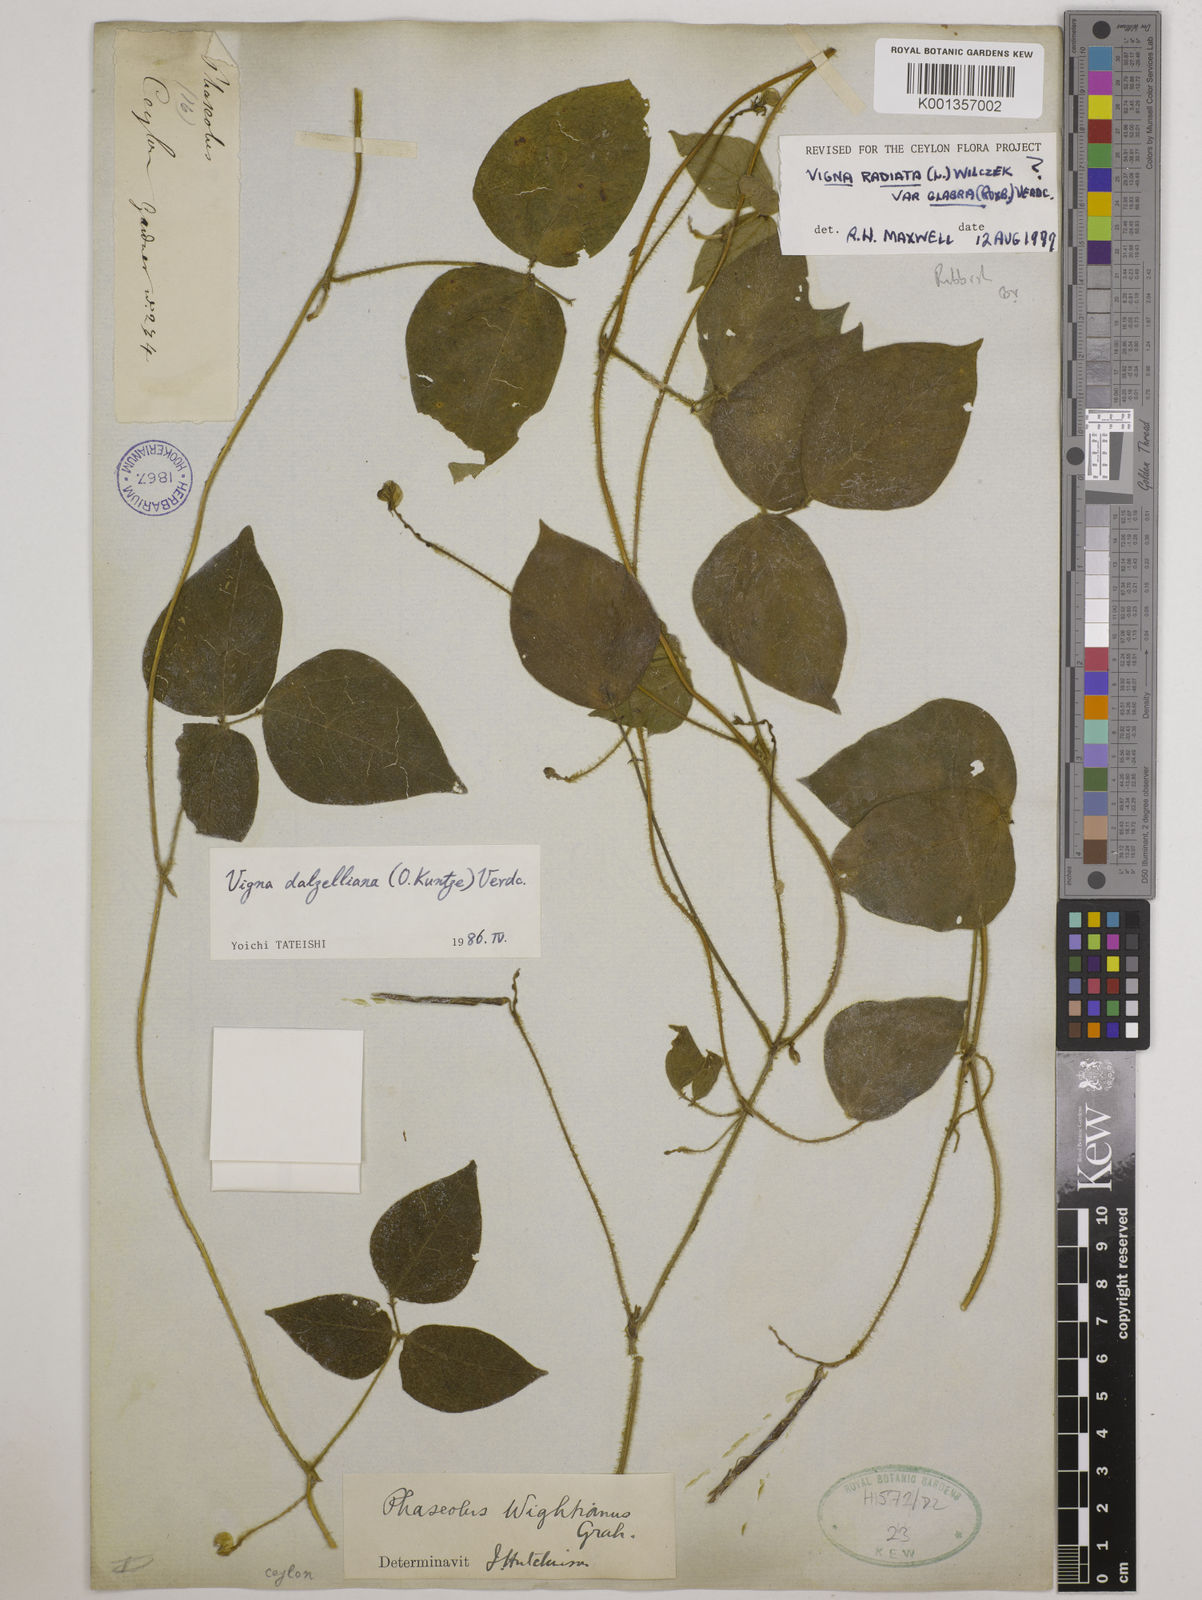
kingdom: Plantae
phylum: Tracheophyta
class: Magnoliopsida
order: Fabales
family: Fabaceae
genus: Vigna
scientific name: Vigna dalzelliana
